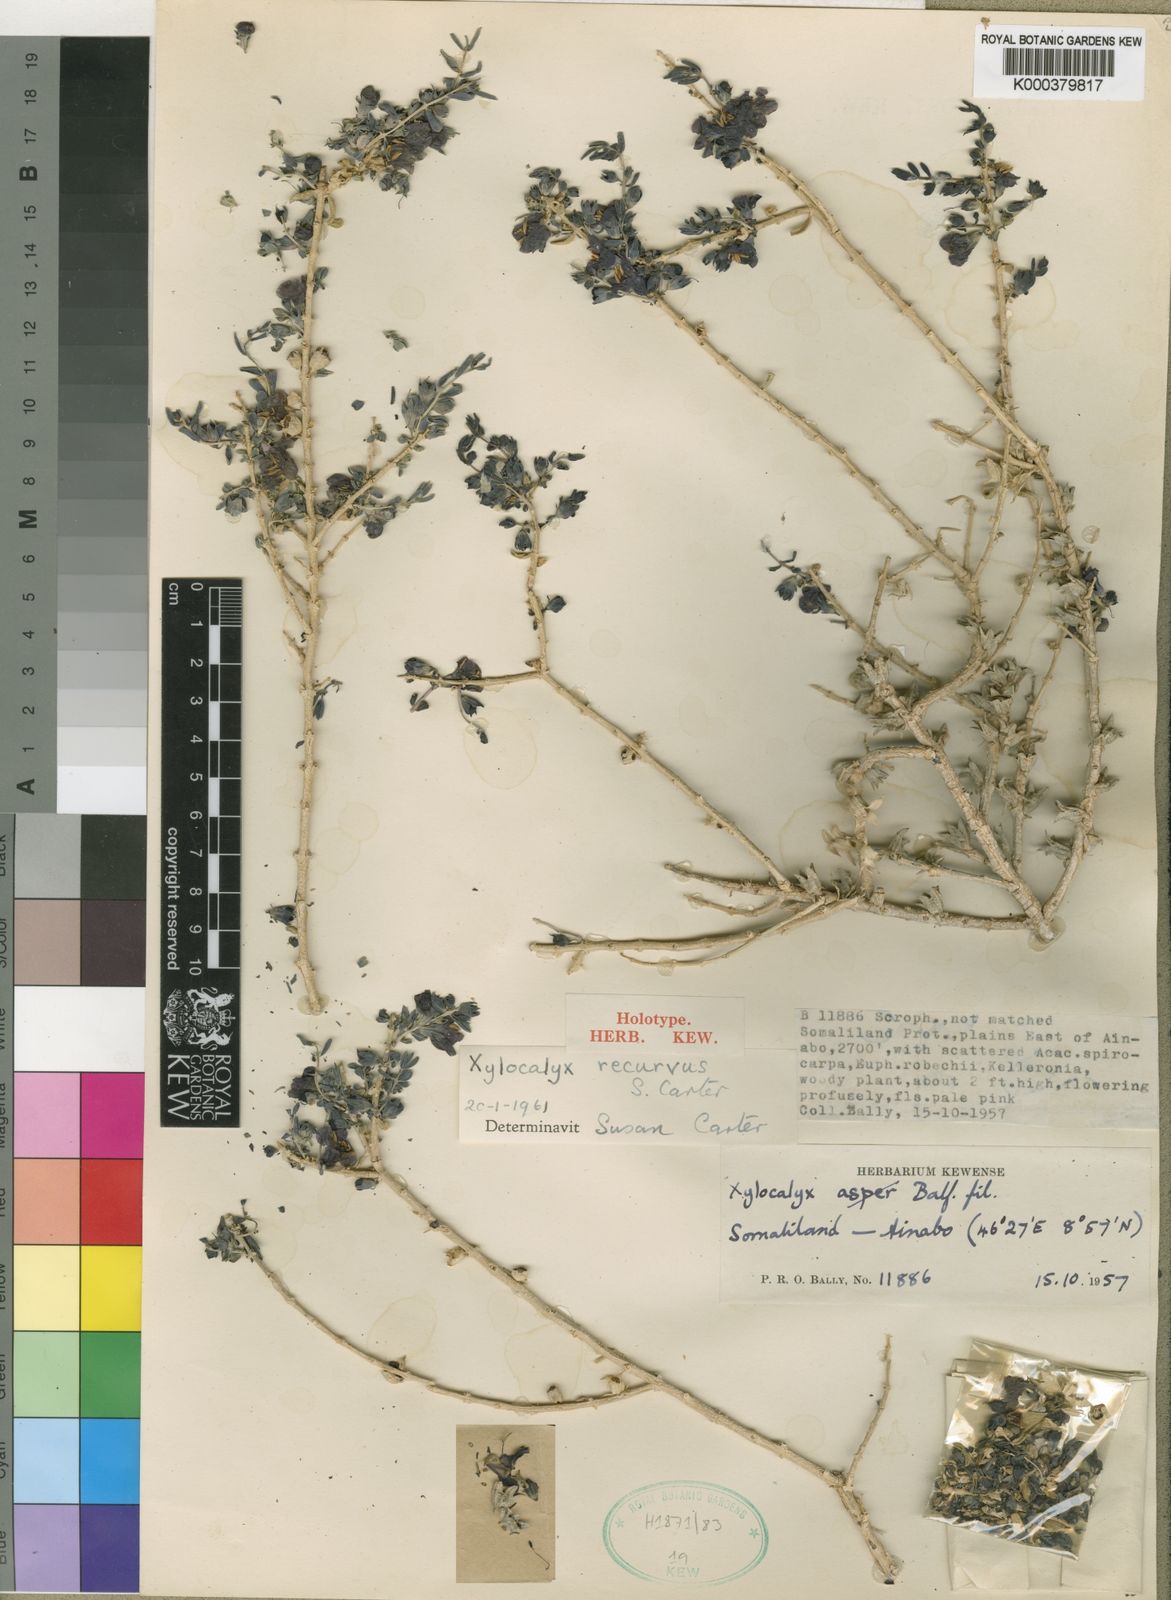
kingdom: Plantae
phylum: Tracheophyta
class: Magnoliopsida
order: Lamiales
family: Orobanchaceae
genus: Xylocalyx
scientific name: Xylocalyx recurvus
